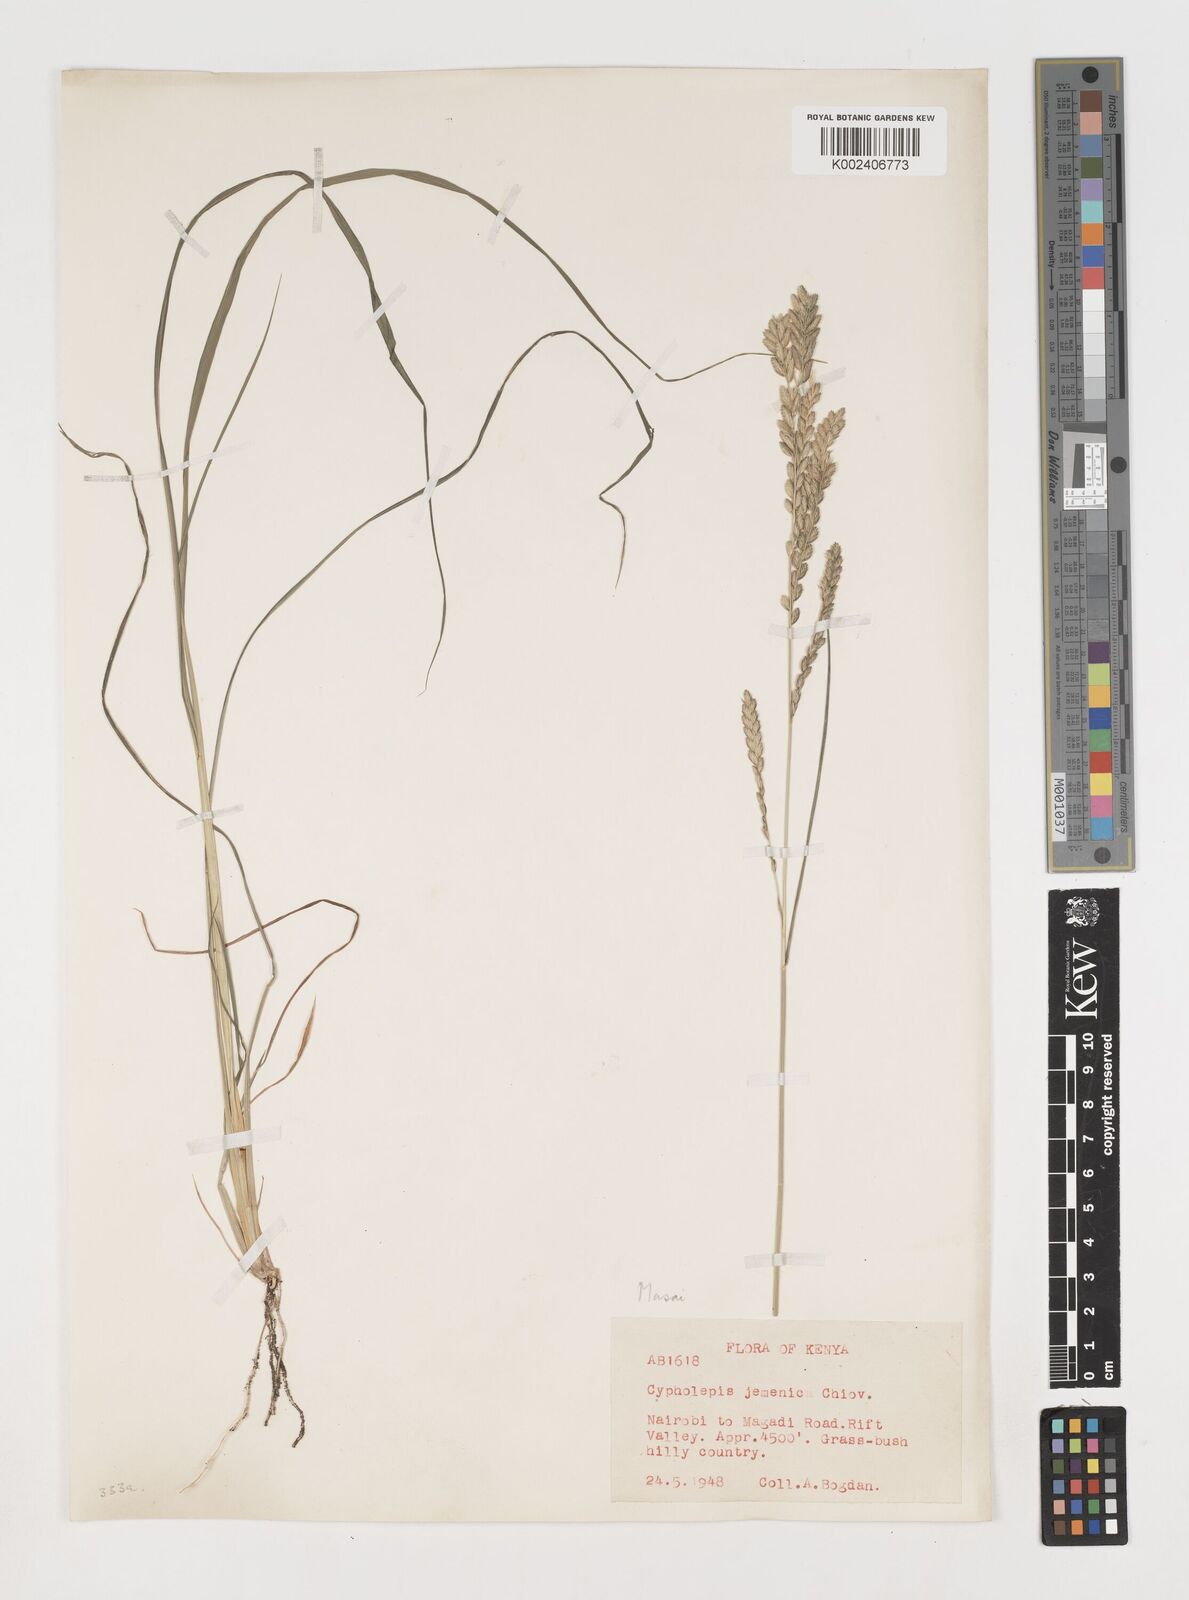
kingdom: Plantae
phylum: Tracheophyta
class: Liliopsida
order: Poales
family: Poaceae
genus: Disakisperma
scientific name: Disakisperma yemenicum
